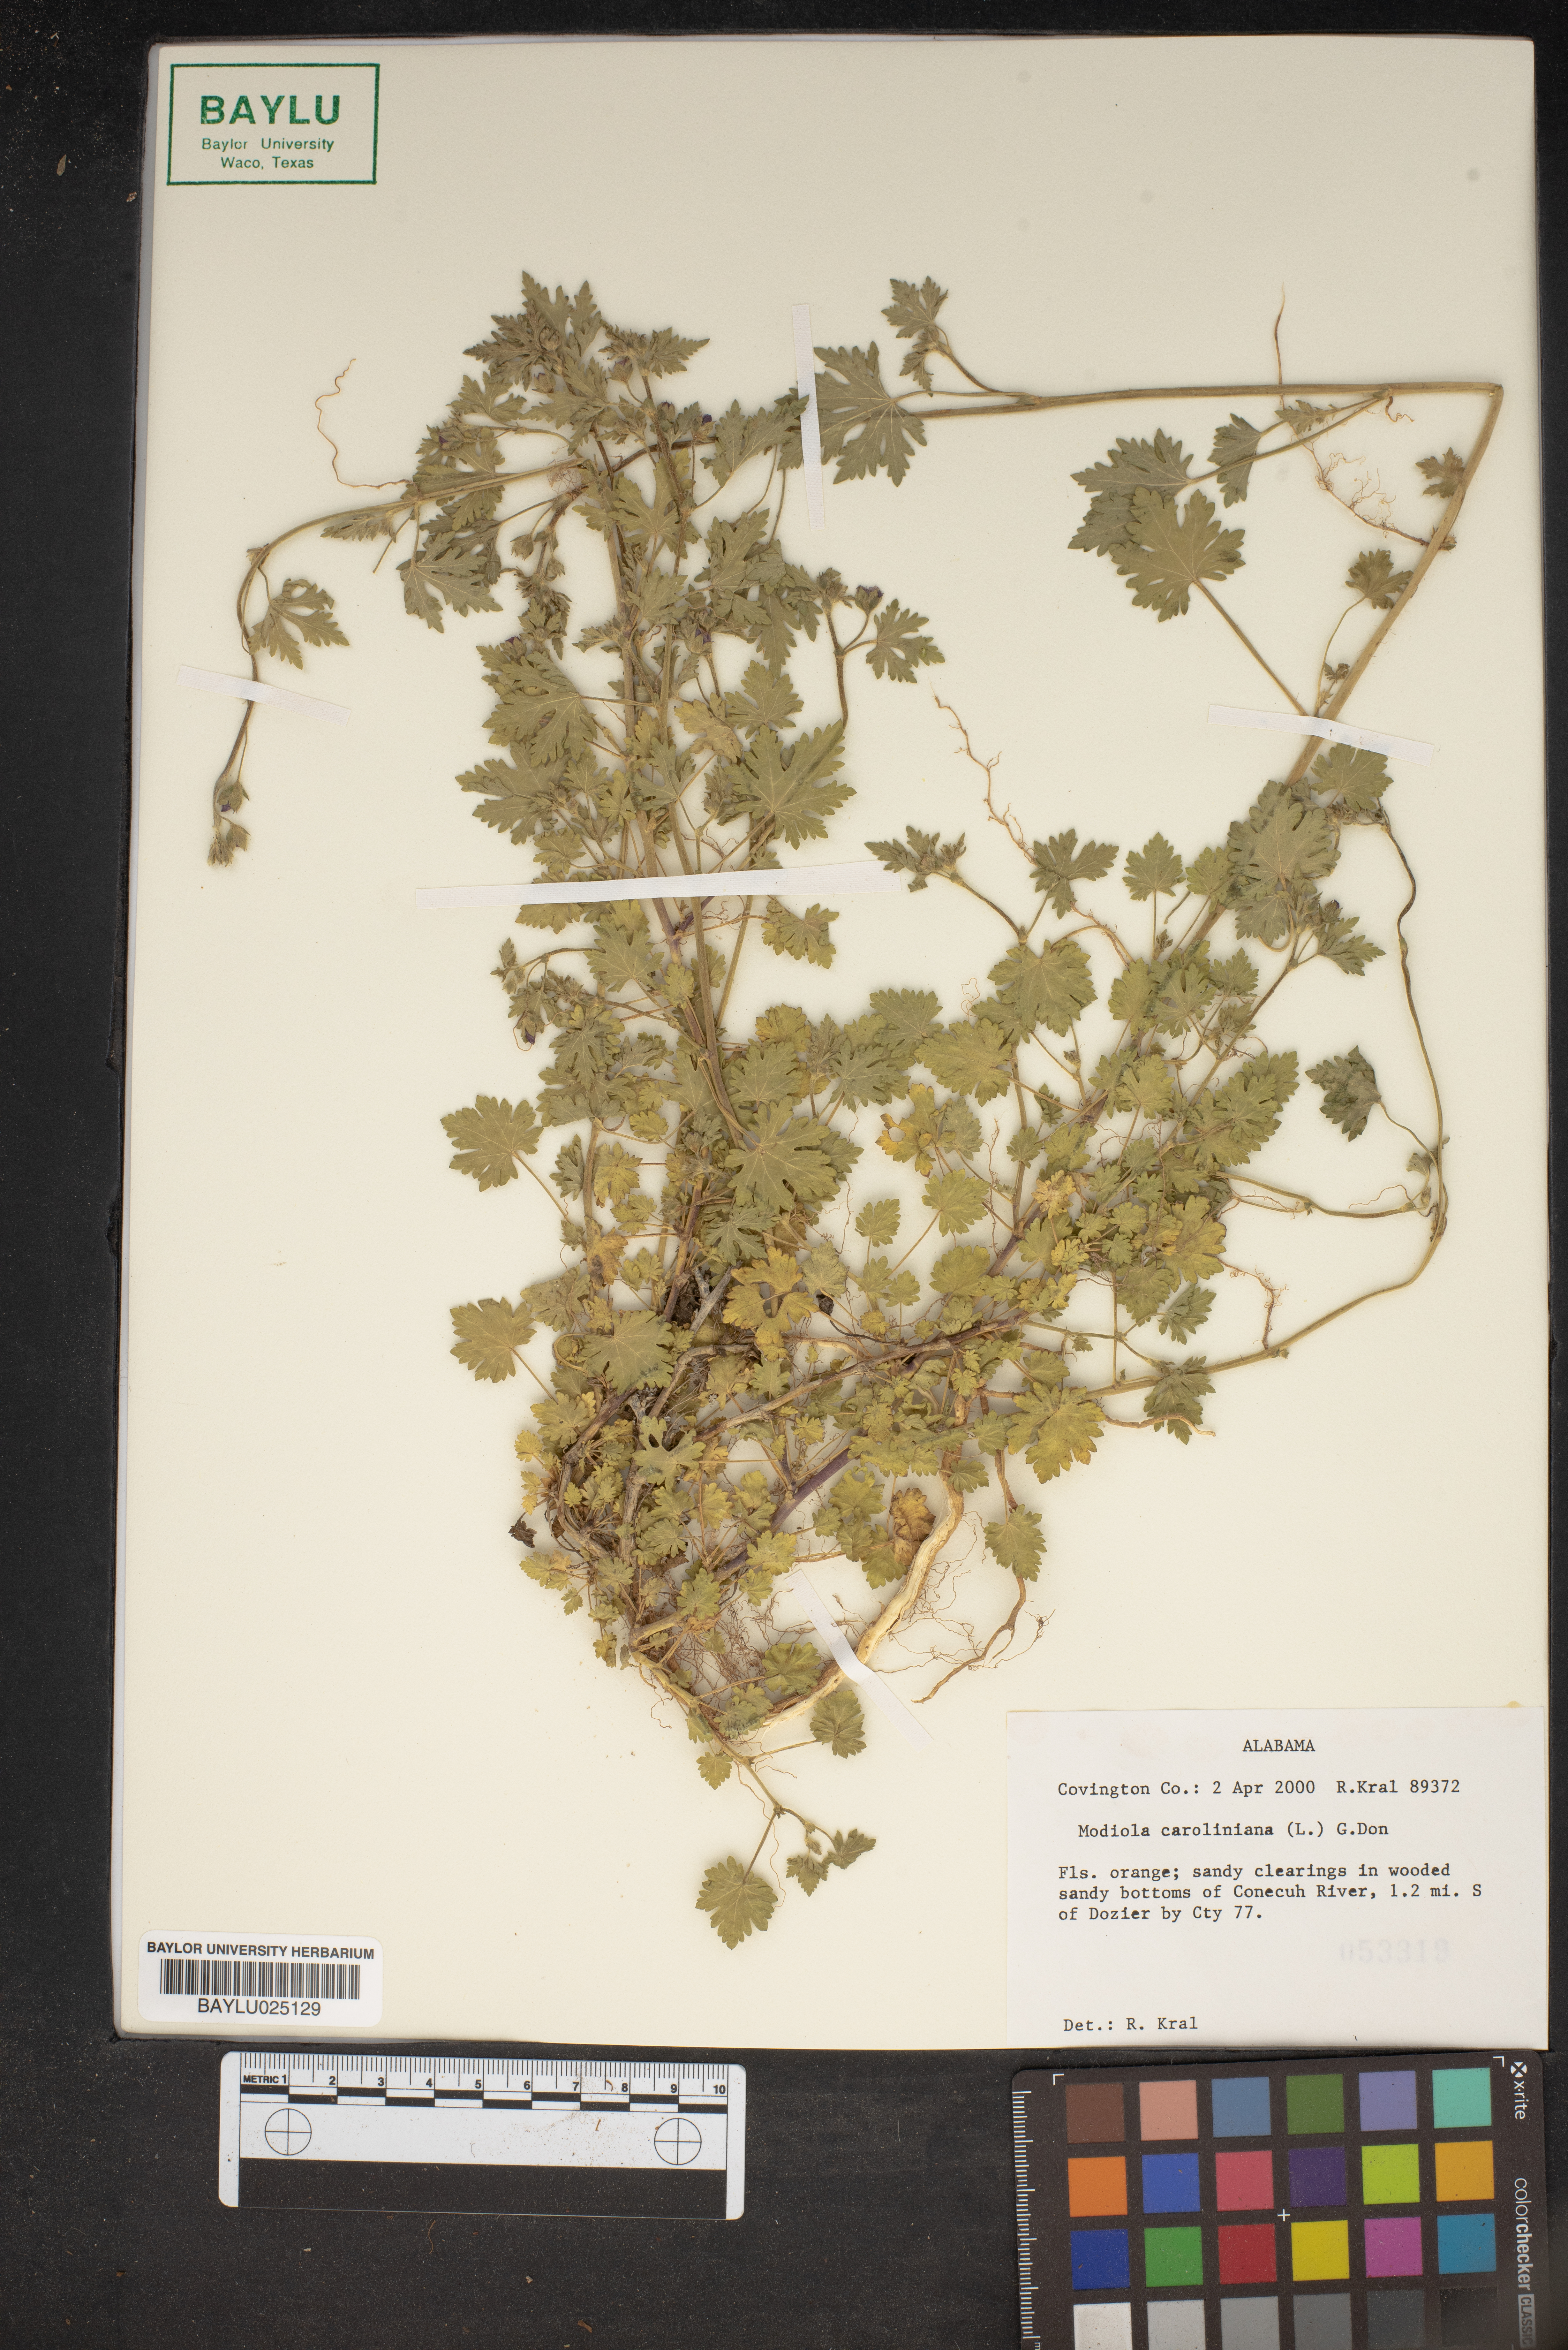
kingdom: Plantae
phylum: Tracheophyta
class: Magnoliopsida
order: Malvales
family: Malvaceae
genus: Modiola
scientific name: Modiola caroliniana
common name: Carolina bristlemallow
